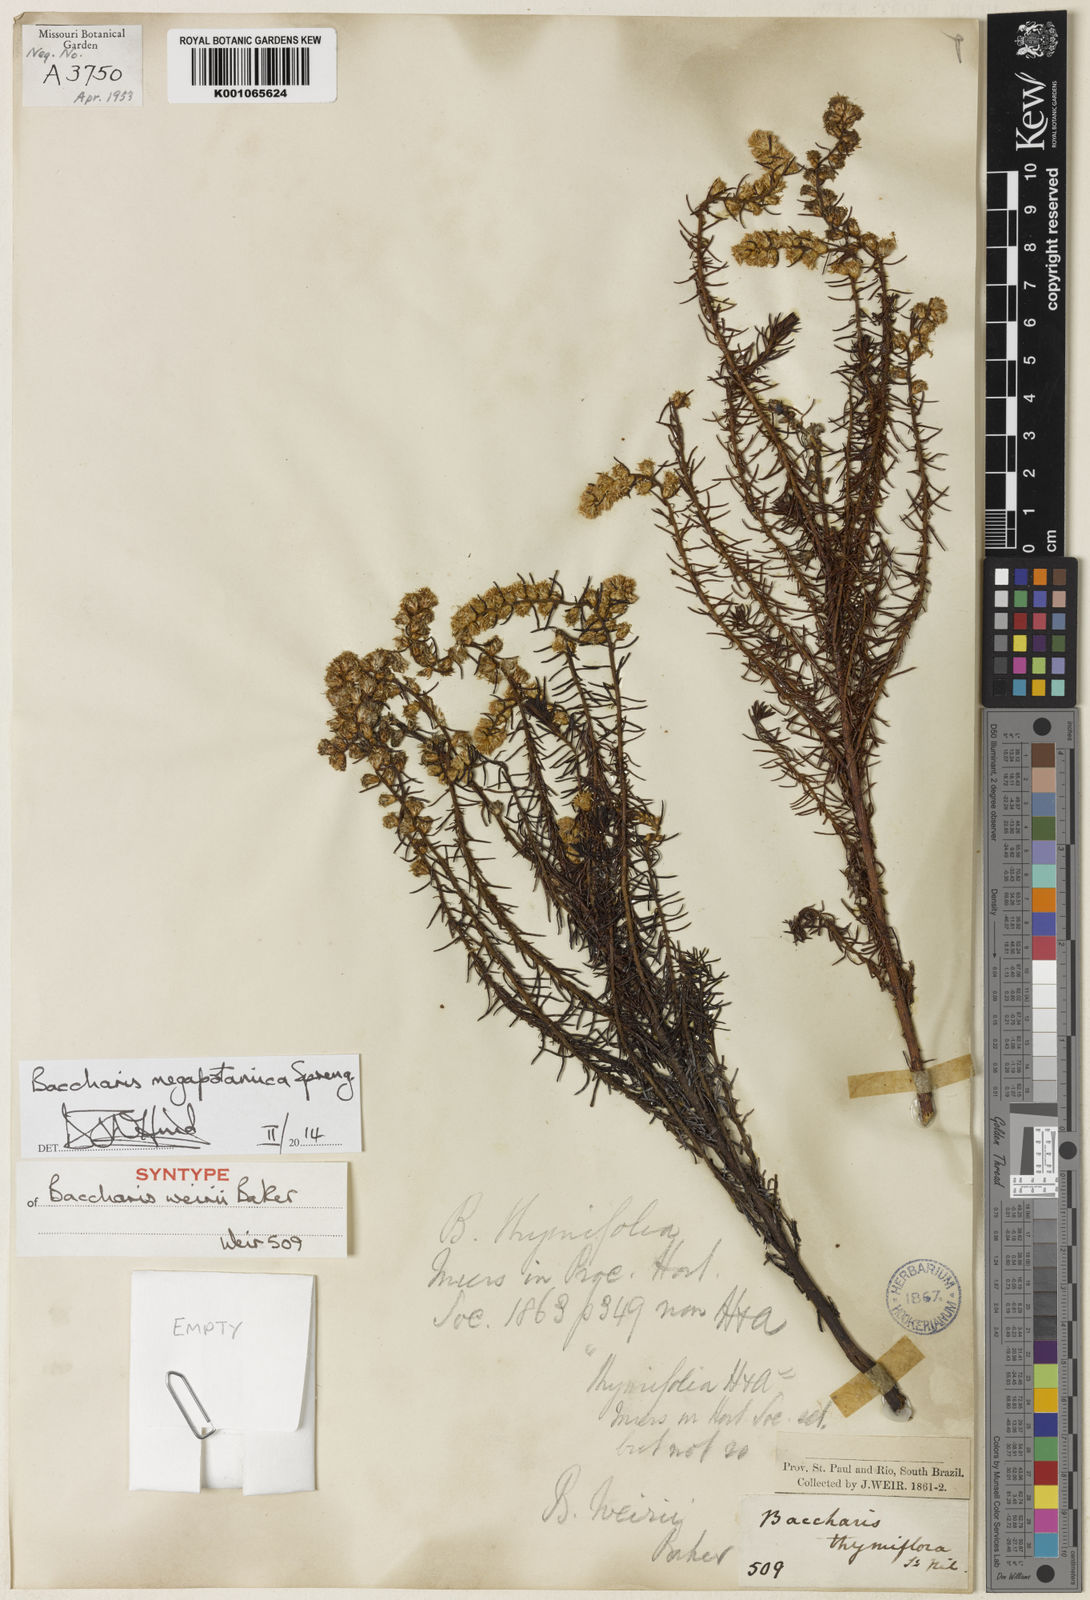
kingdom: Plantae
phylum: Tracheophyta
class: Magnoliopsida
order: Asterales
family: Asteraceae
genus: Baccharis
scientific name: Baccharis megapotamica
